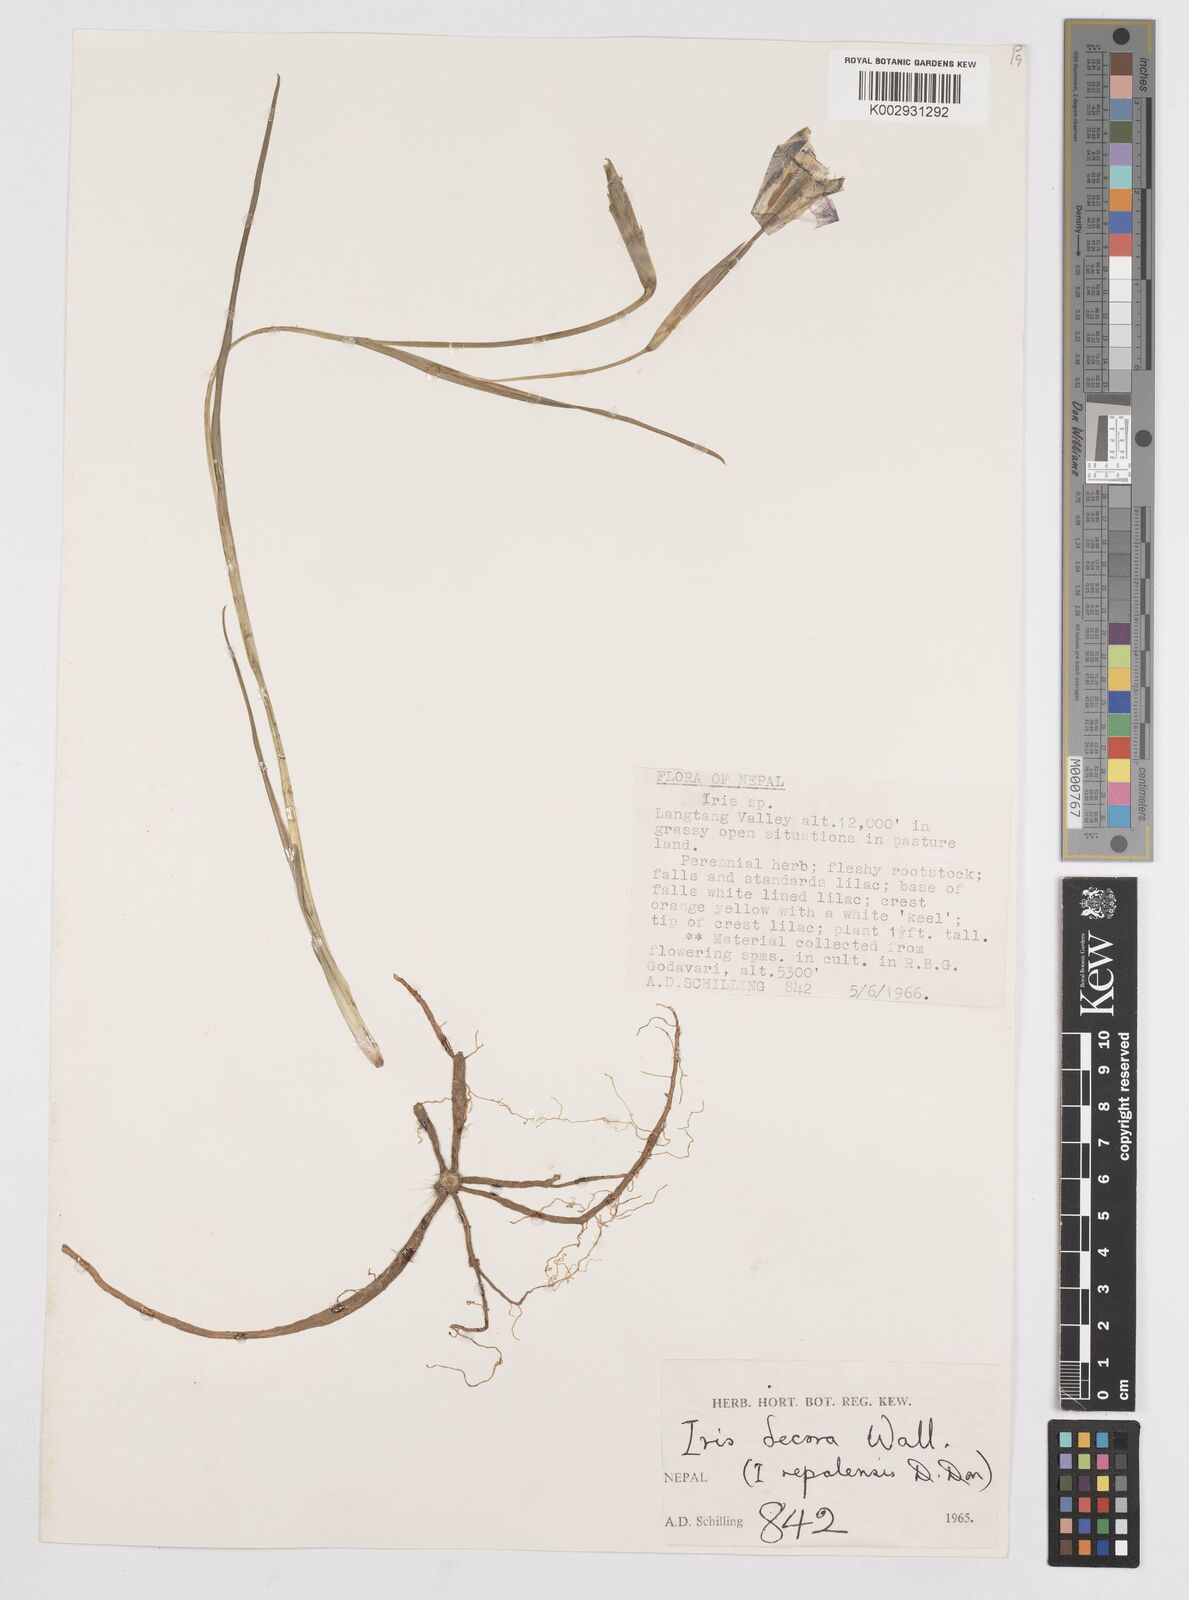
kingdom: Plantae
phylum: Tracheophyta
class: Liliopsida
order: Asparagales
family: Iridaceae
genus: Iris
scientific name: Iris decora
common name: Nepal iris
